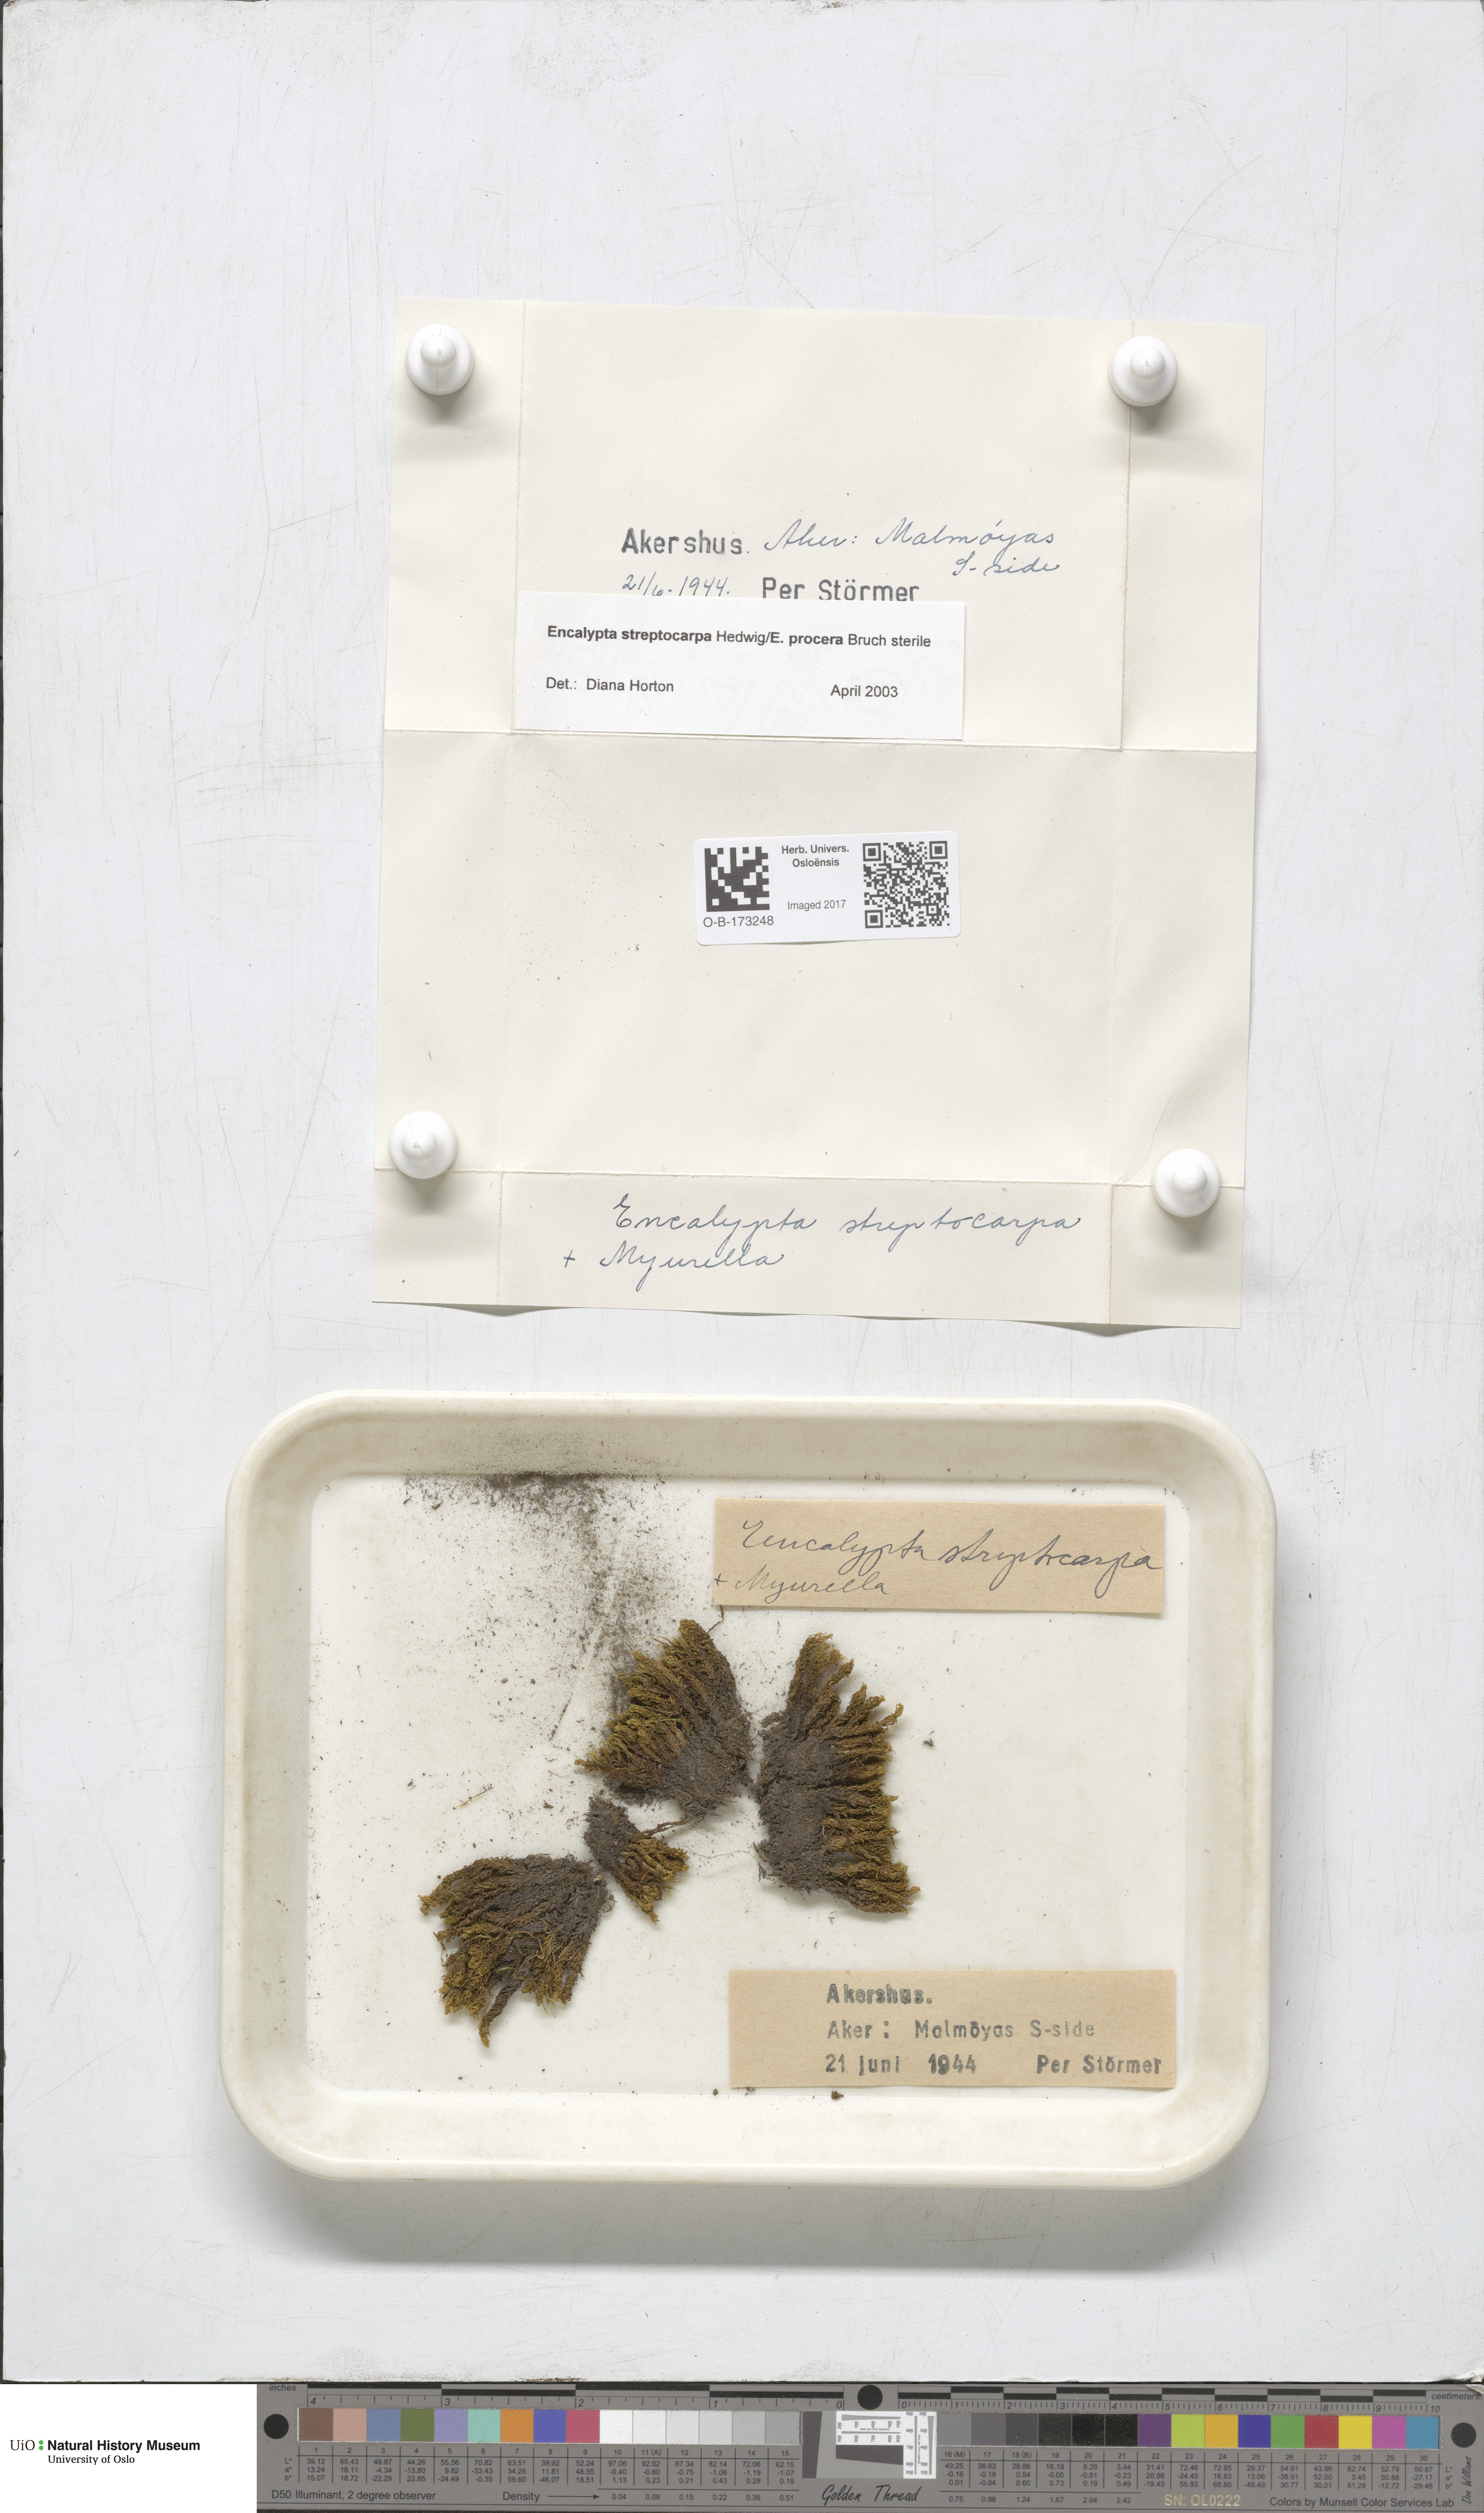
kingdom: Plantae
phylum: Bryophyta
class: Bryopsida
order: Encalyptales
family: Encalyptaceae
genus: Encalypta
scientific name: Encalypta
